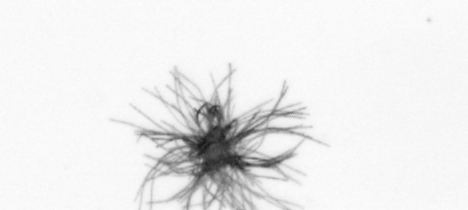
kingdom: Bacteria
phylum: Cyanobacteria
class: Cyanobacteriia
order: Cyanobacteriales
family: Microcoleaceae
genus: Trichodesmium
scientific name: Trichodesmium
